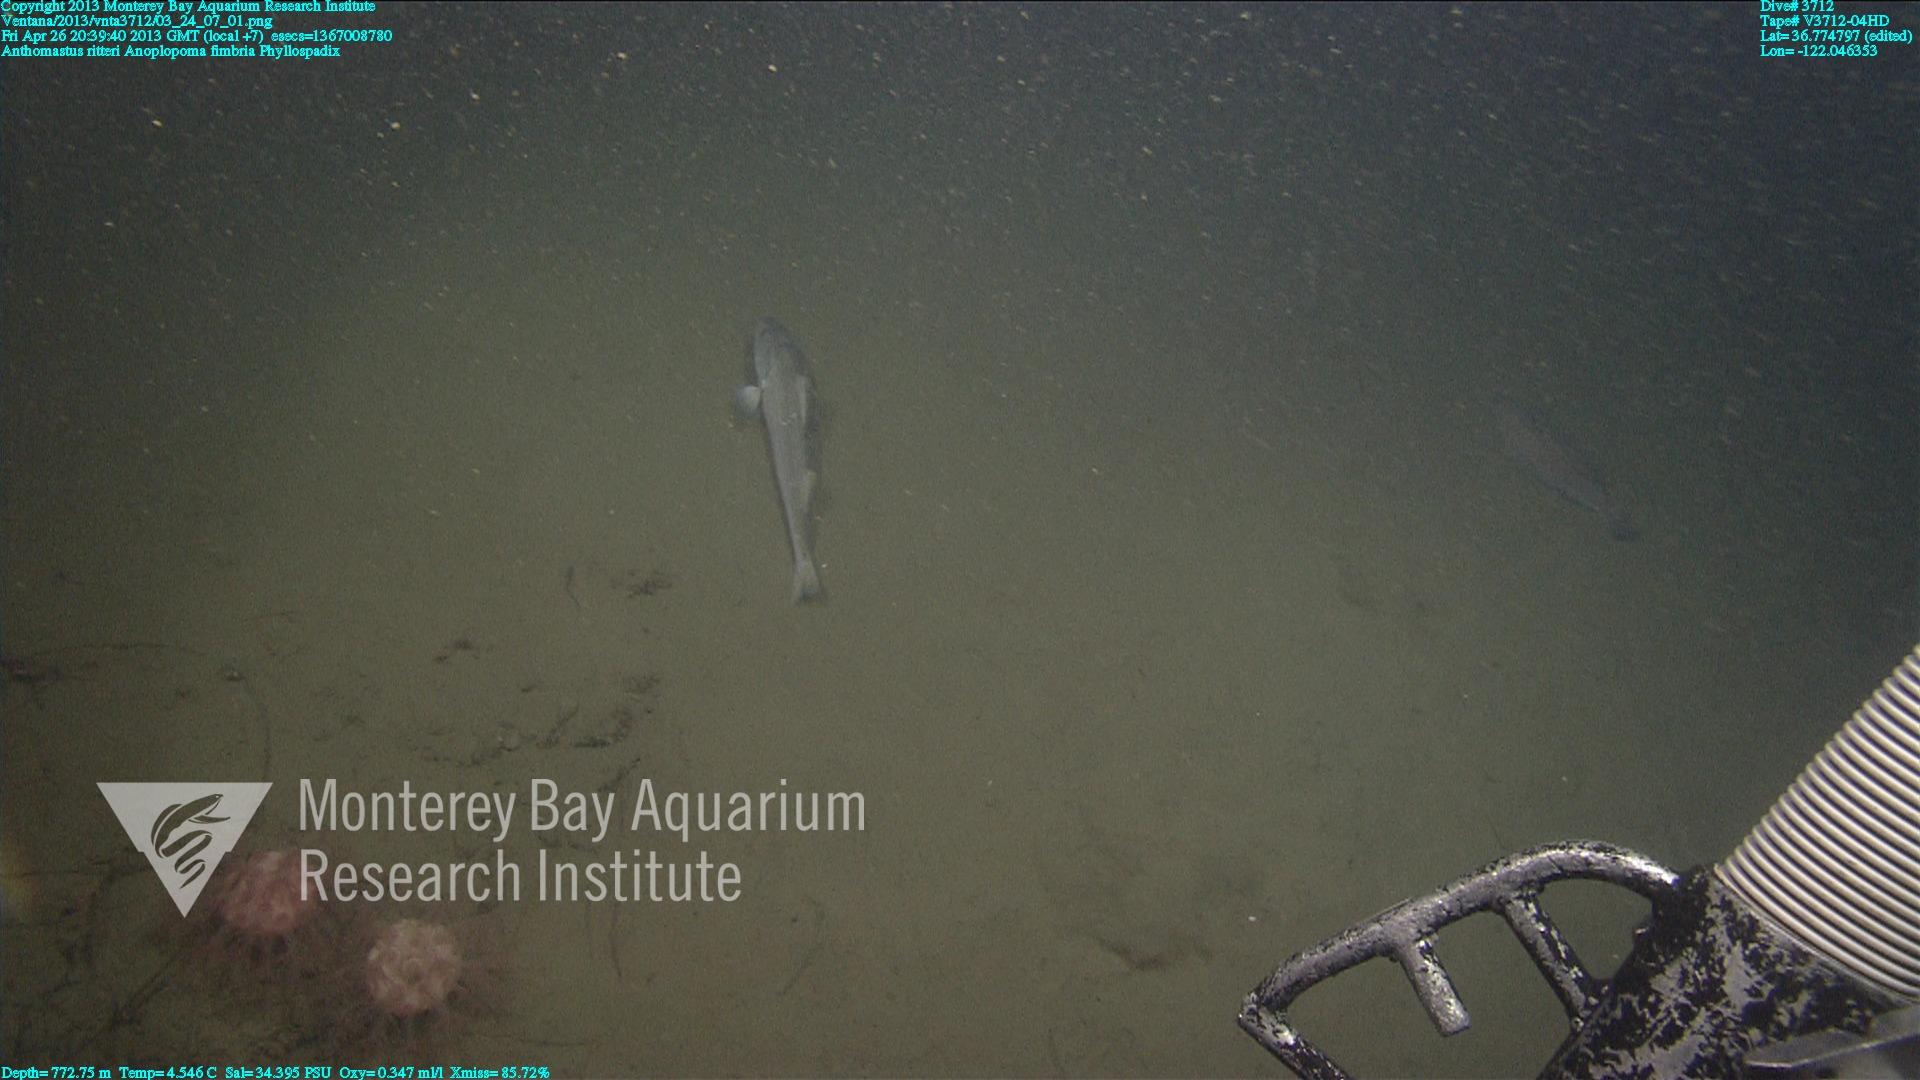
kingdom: Animalia
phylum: Cnidaria
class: Anthozoa
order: Scleralcyonacea
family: Coralliidae
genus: Heteropolypus
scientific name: Heteropolypus ritteri
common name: Ritter's soft coral
